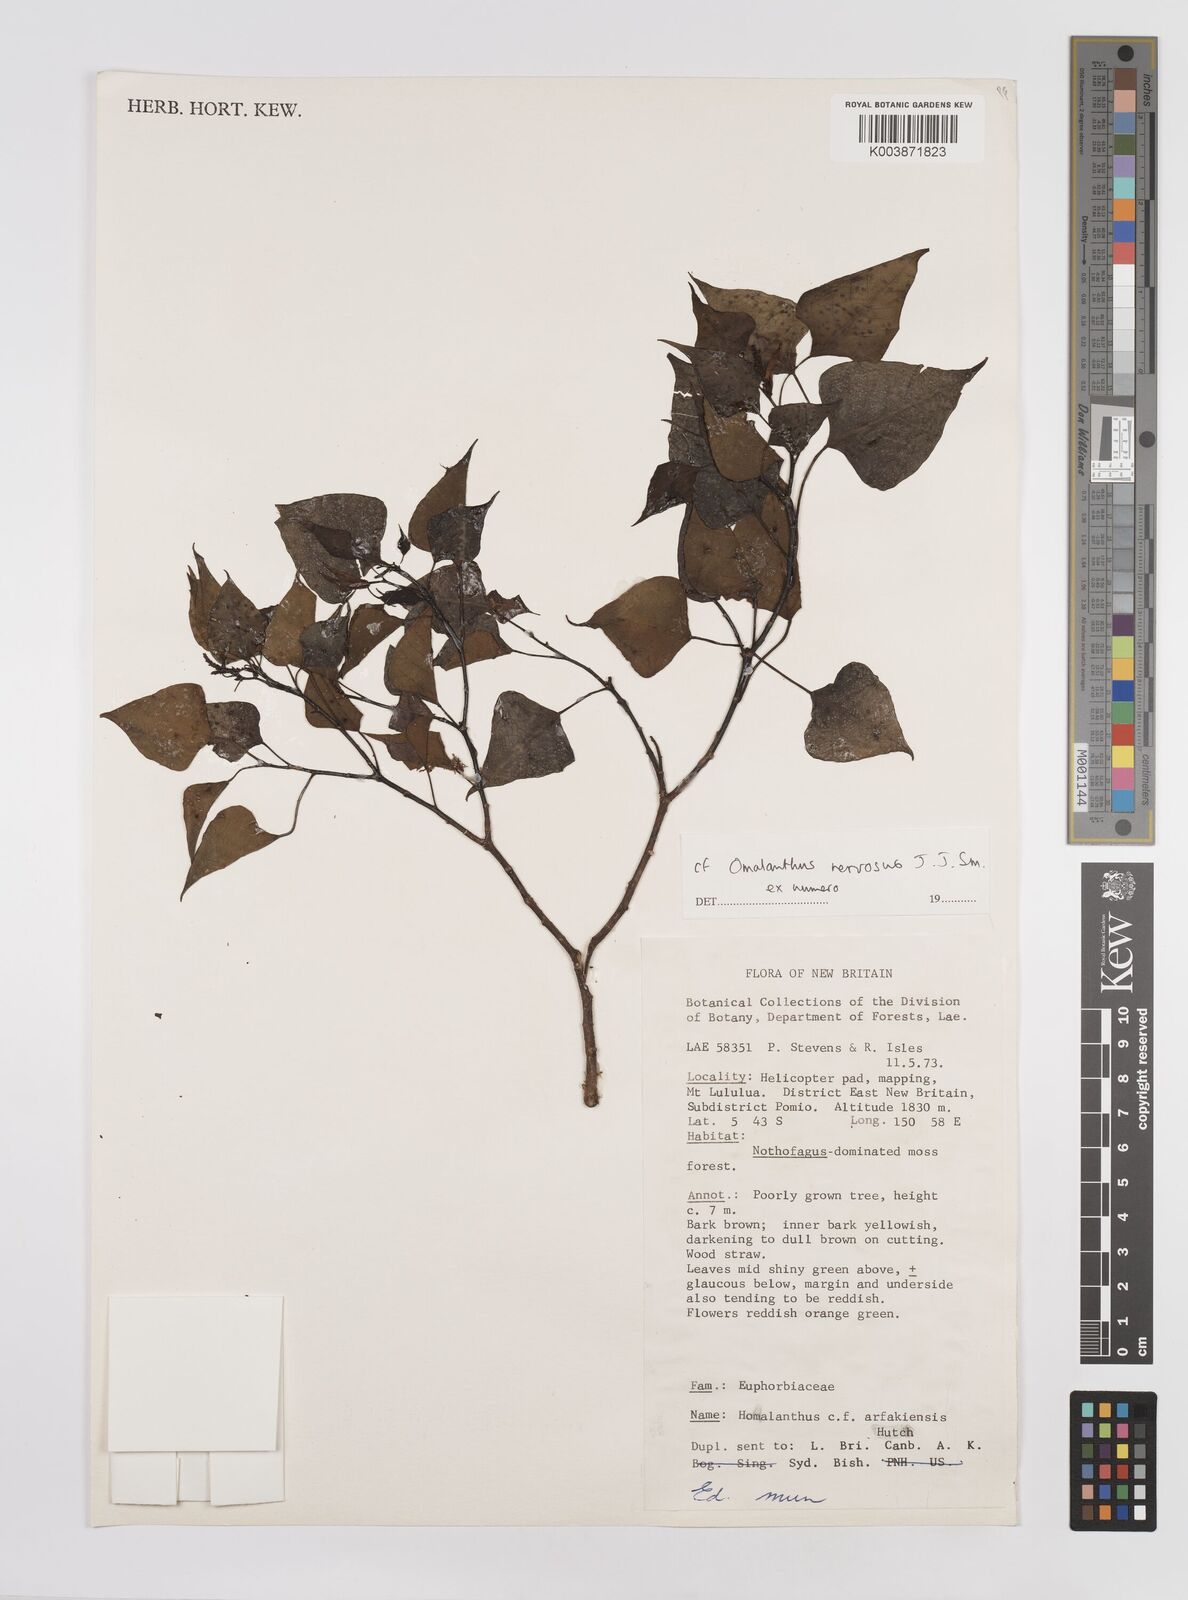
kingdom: Plantae
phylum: Tracheophyta
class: Magnoliopsida
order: Malpighiales
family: Euphorbiaceae
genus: Homalanthus
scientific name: Homalanthus nervosus
